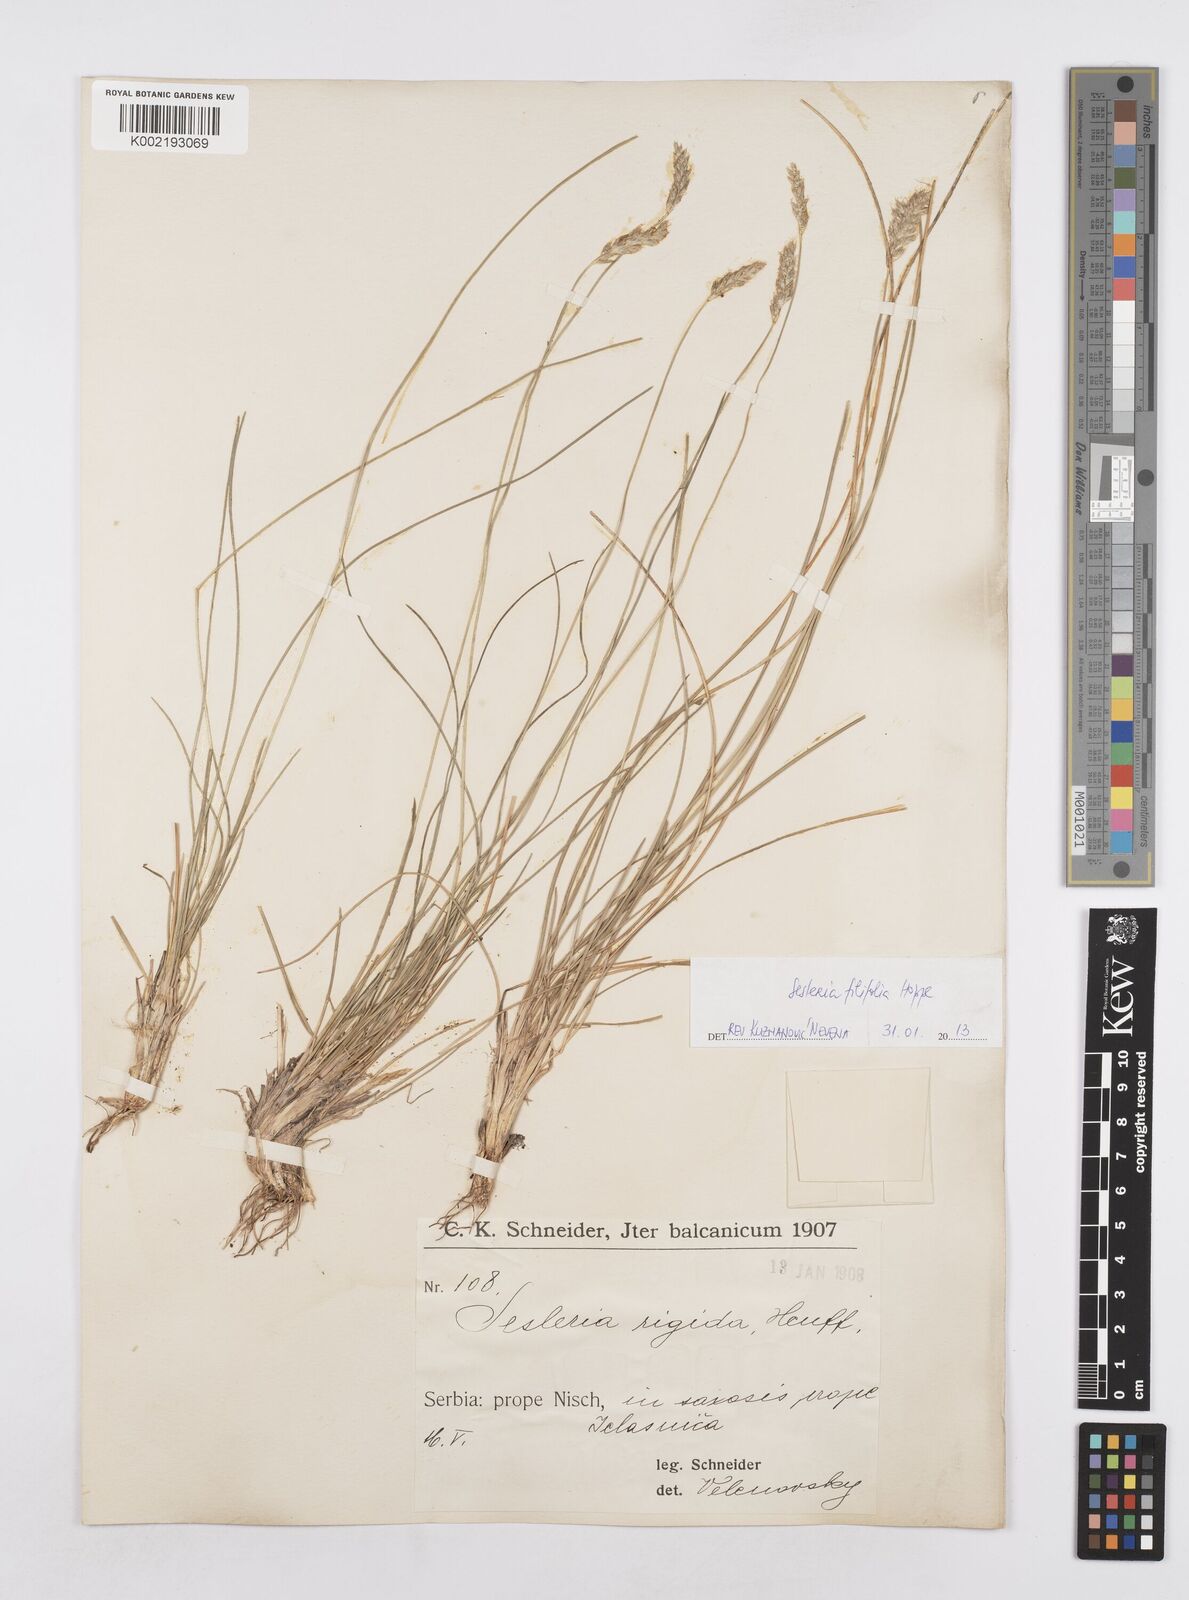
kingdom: Plantae
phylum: Tracheophyta
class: Liliopsida
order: Poales
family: Poaceae
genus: Sesleria
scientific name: Sesleria rigida
